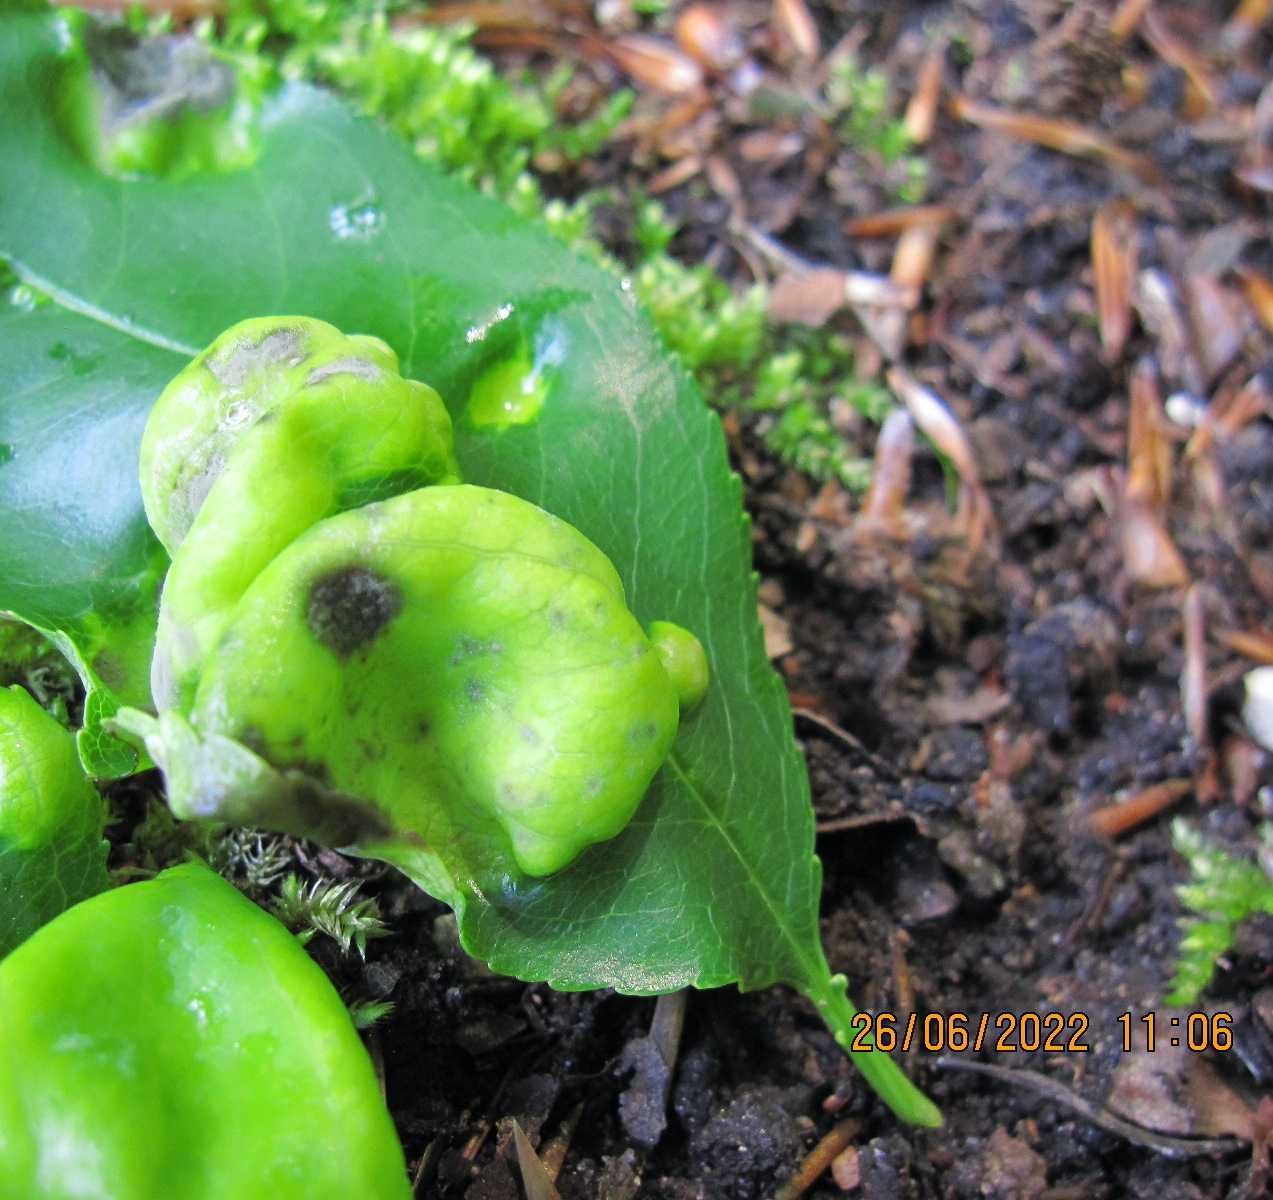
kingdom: Fungi
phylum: Ascomycota
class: Taphrinomycetes
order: Taphrinales
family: Taphrinaceae
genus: Taphrina
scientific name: Taphrina farlowii
